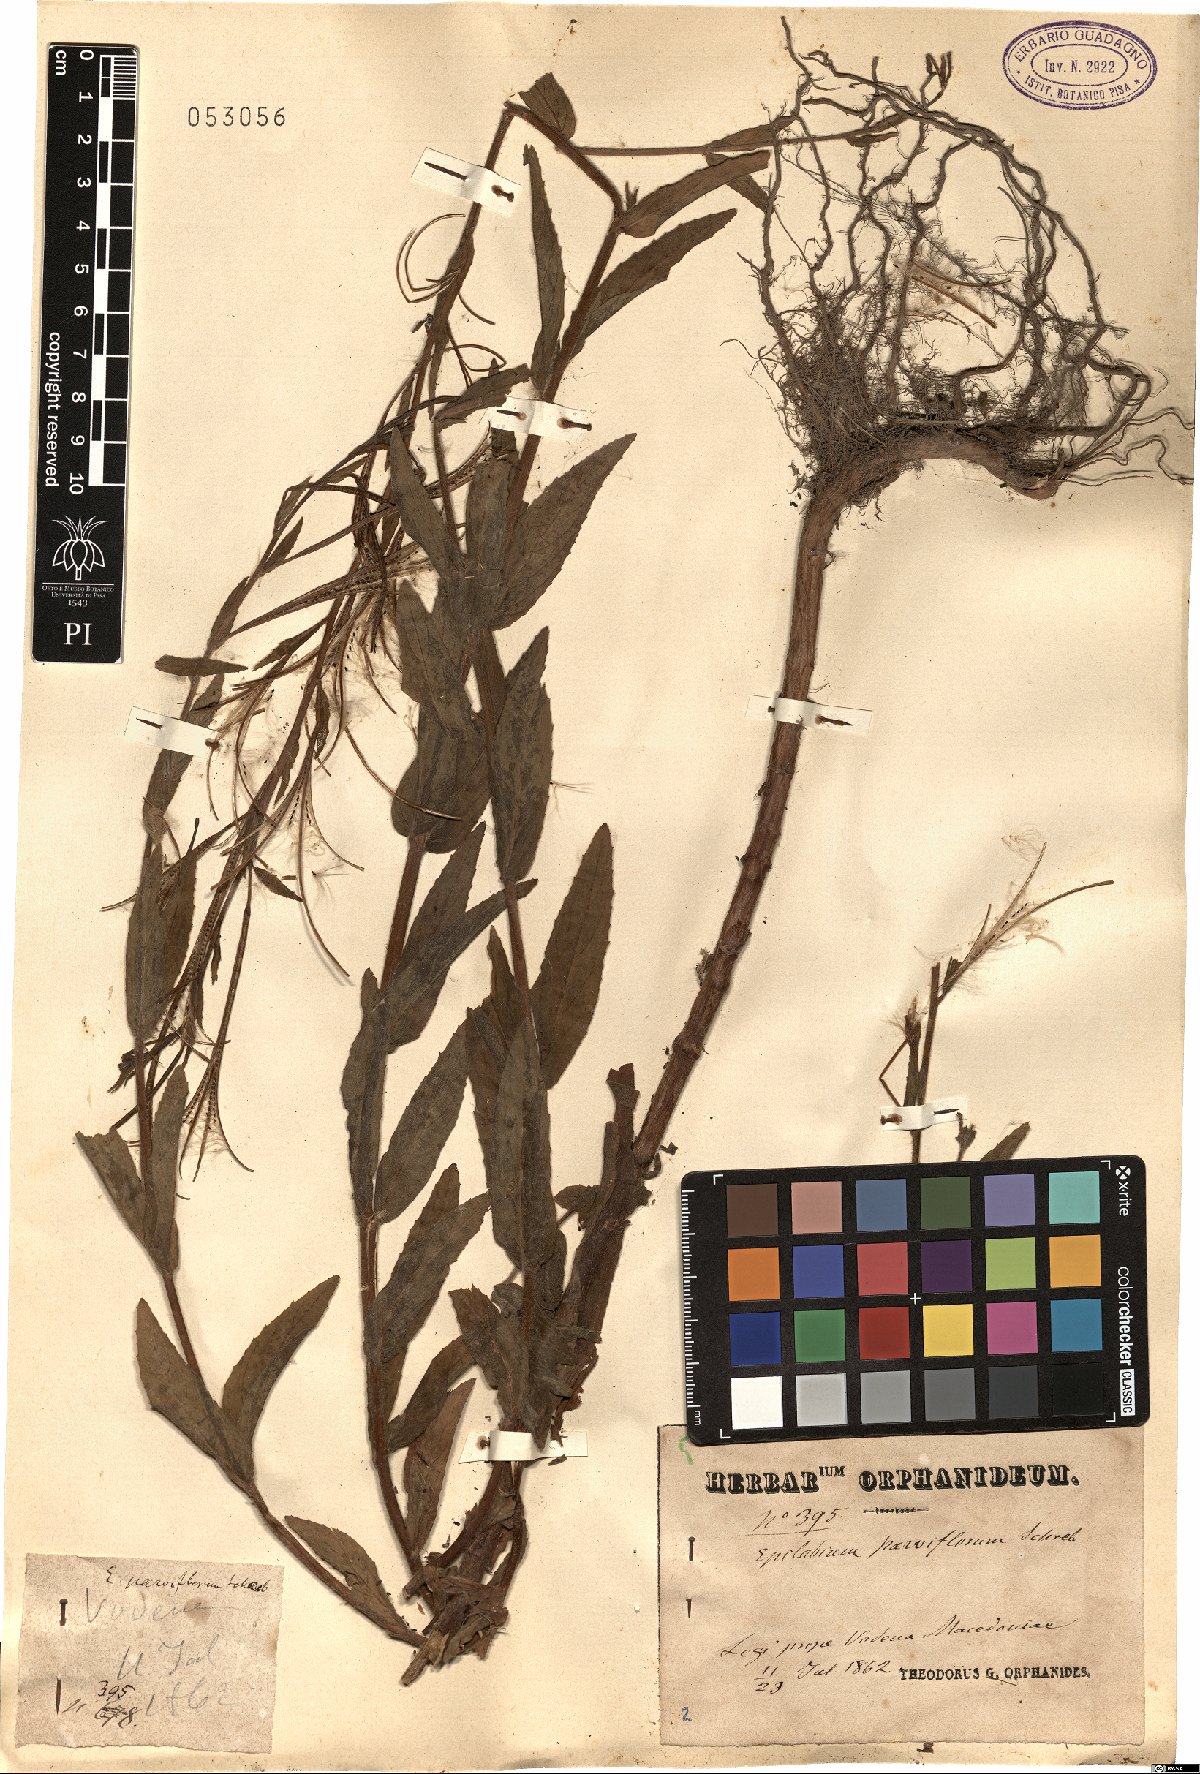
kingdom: Plantae
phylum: Tracheophyta
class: Magnoliopsida
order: Myrtales
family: Onagraceae
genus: Epilobium
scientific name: Epilobium parviflorum
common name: Hoary willowherb
